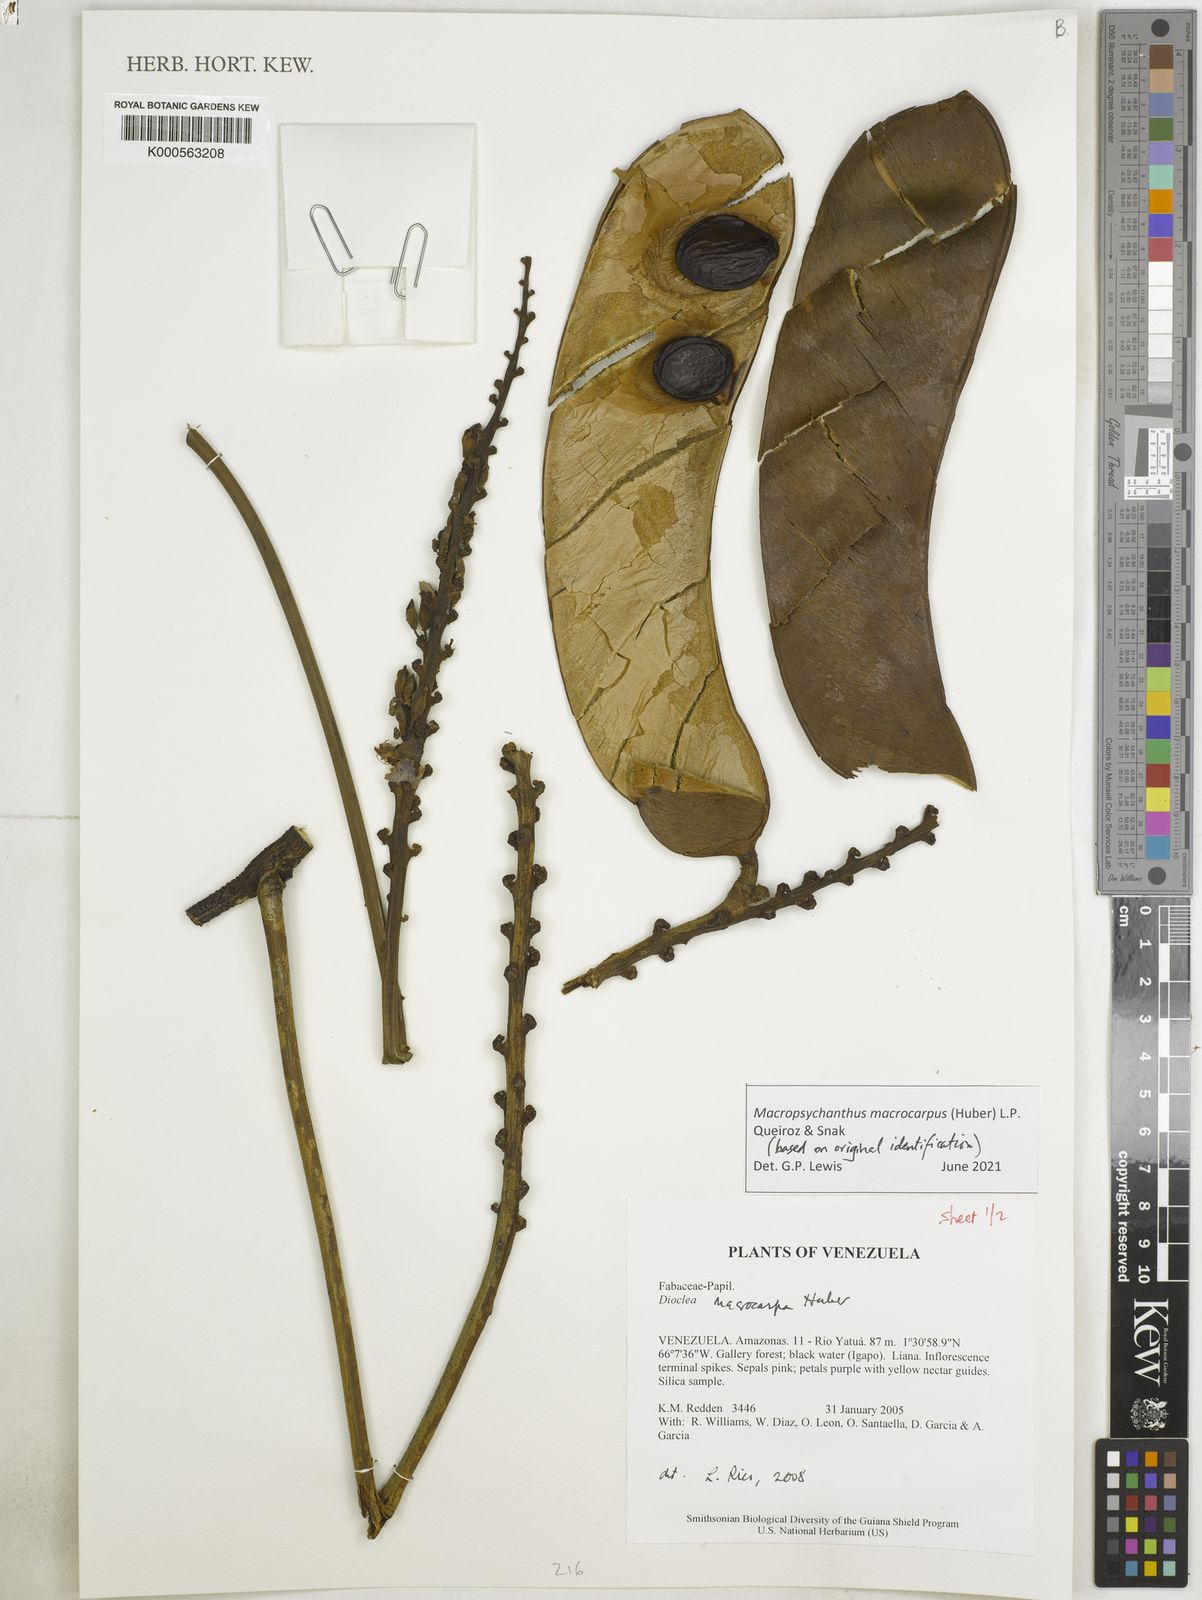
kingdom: Plantae
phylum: Tracheophyta
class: Magnoliopsida
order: Fabales
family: Fabaceae
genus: Macropsychanthus
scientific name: Macropsychanthus macrocarpus
